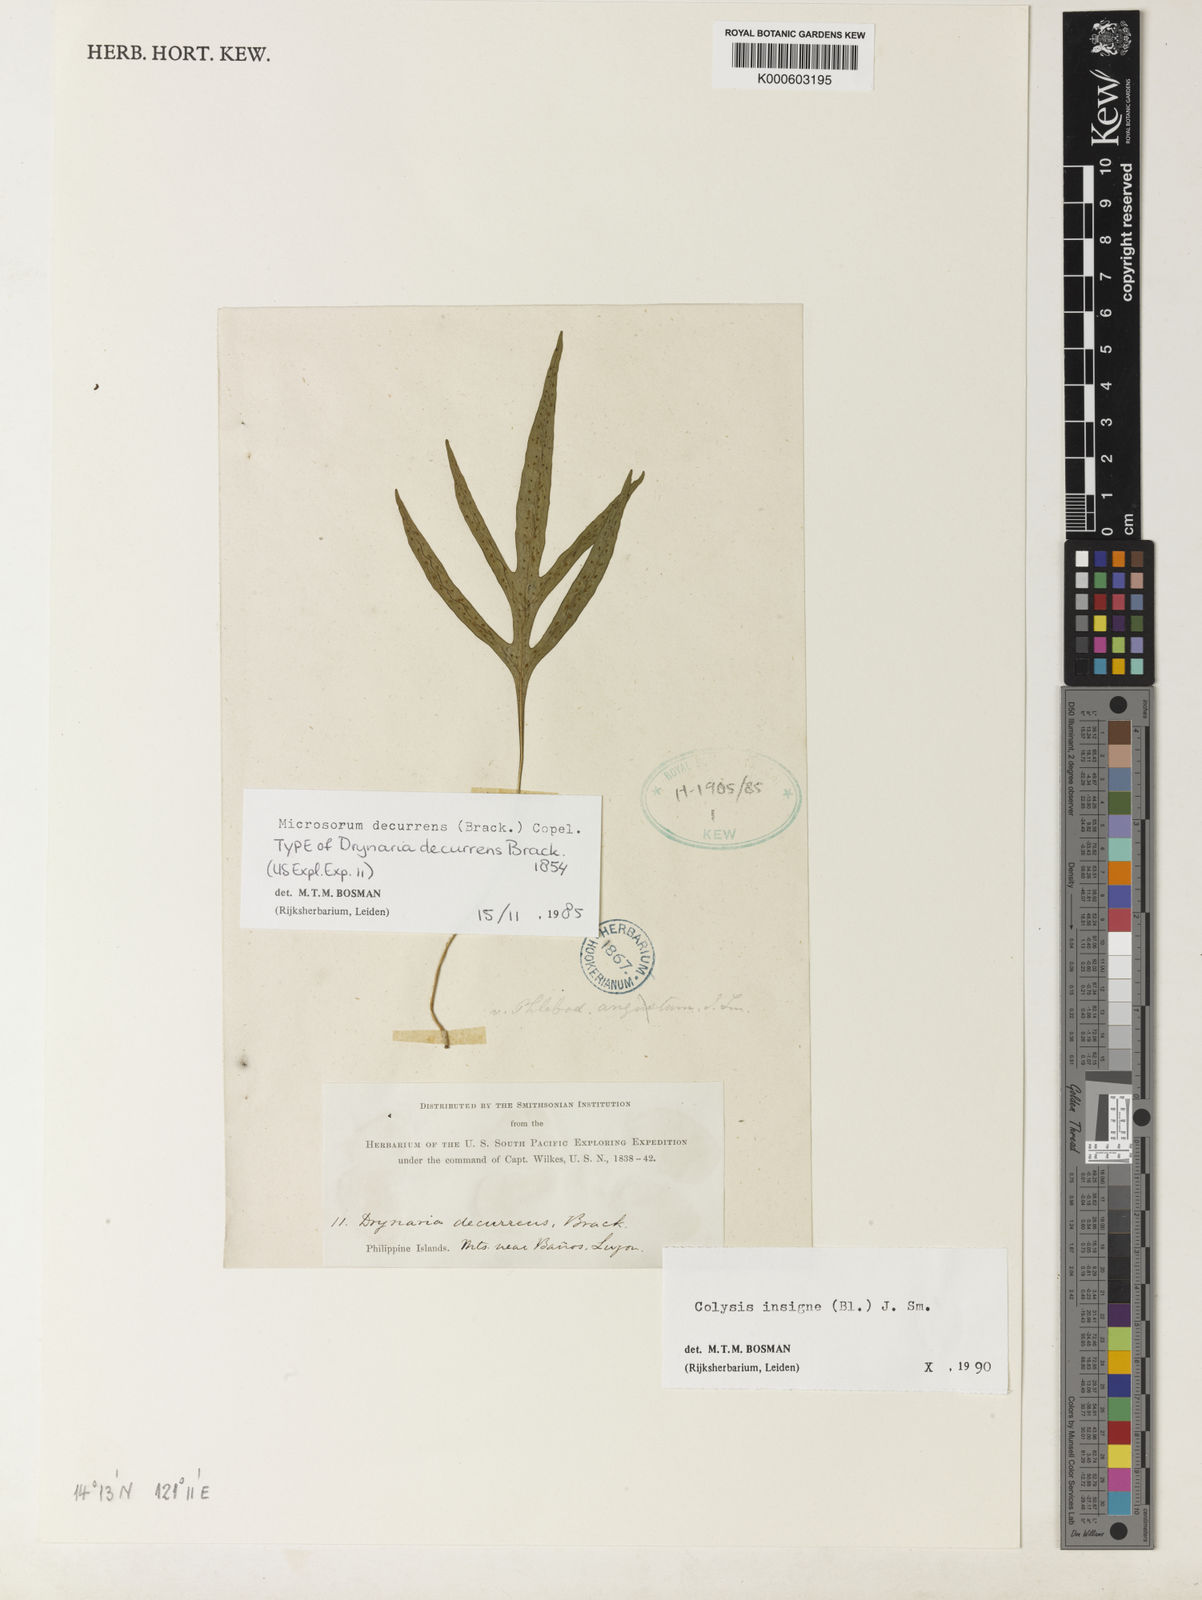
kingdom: Plantae
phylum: Tracheophyta
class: Polypodiopsida
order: Polypodiales
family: Polypodiaceae
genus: Leptochilus
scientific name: Leptochilus insignis
